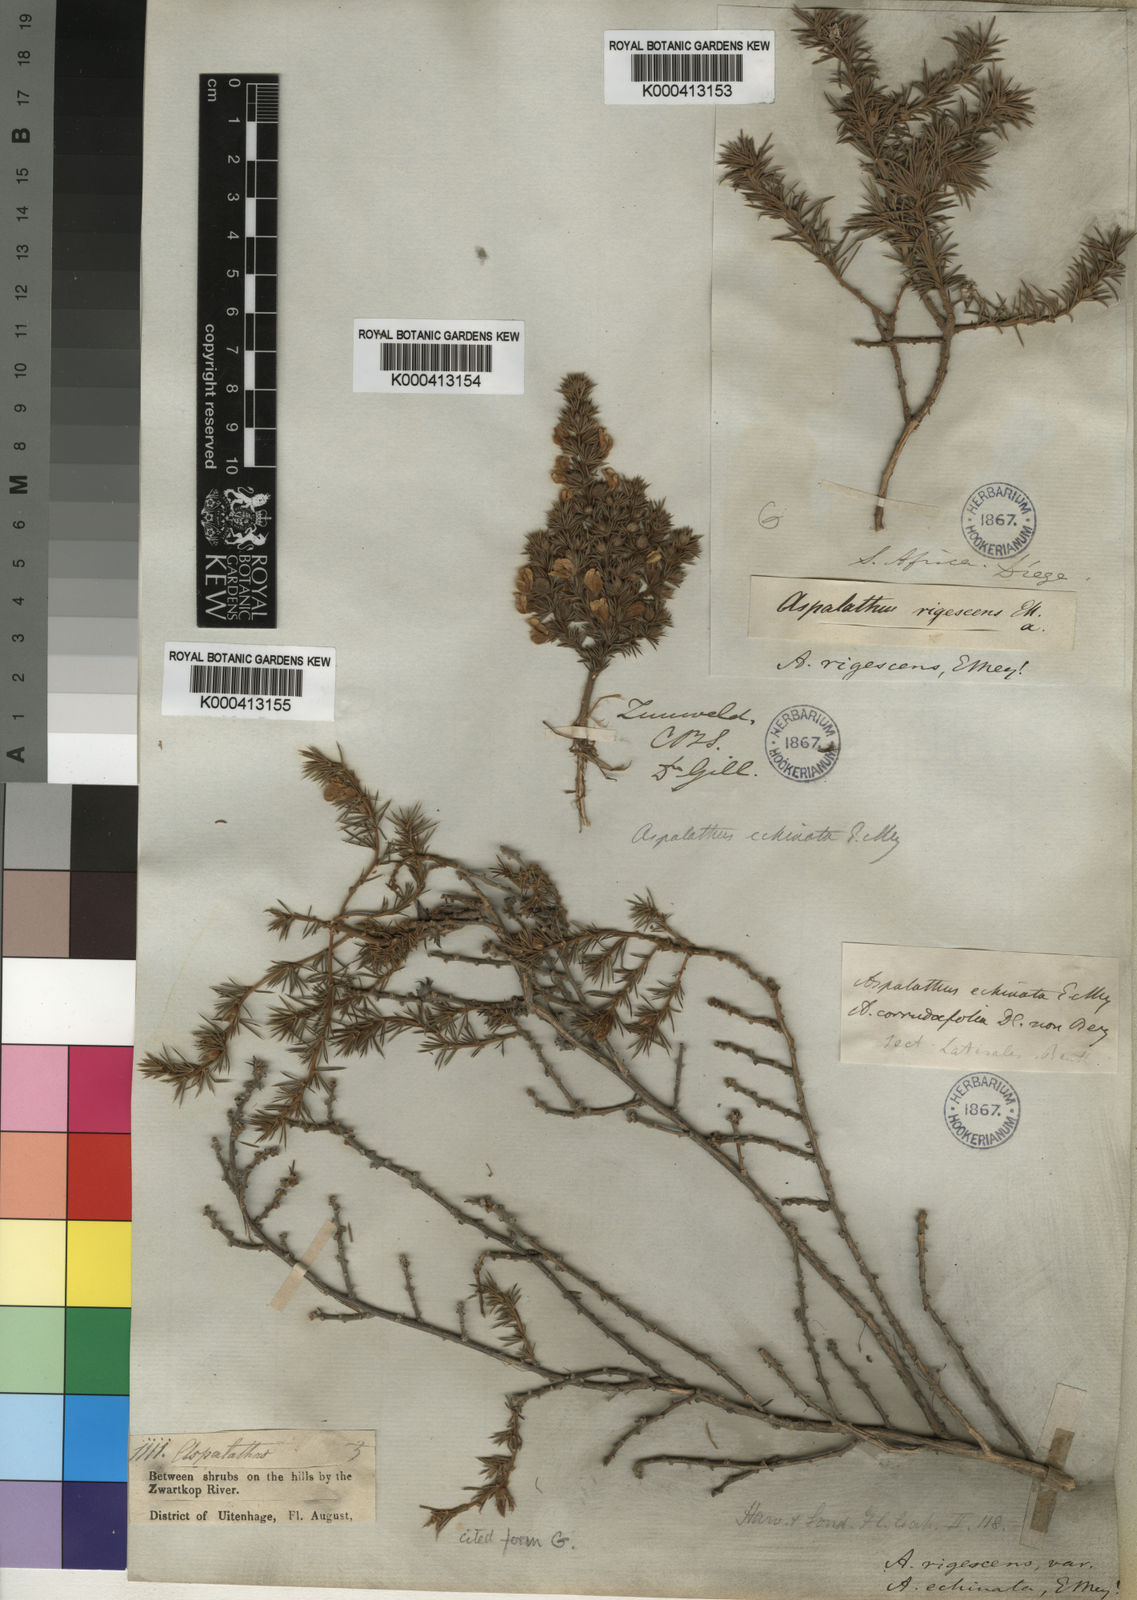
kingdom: Plantae
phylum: Tracheophyta
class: Magnoliopsida
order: Fabales
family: Fabaceae
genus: Aspalathus
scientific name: Aspalathus setacea
